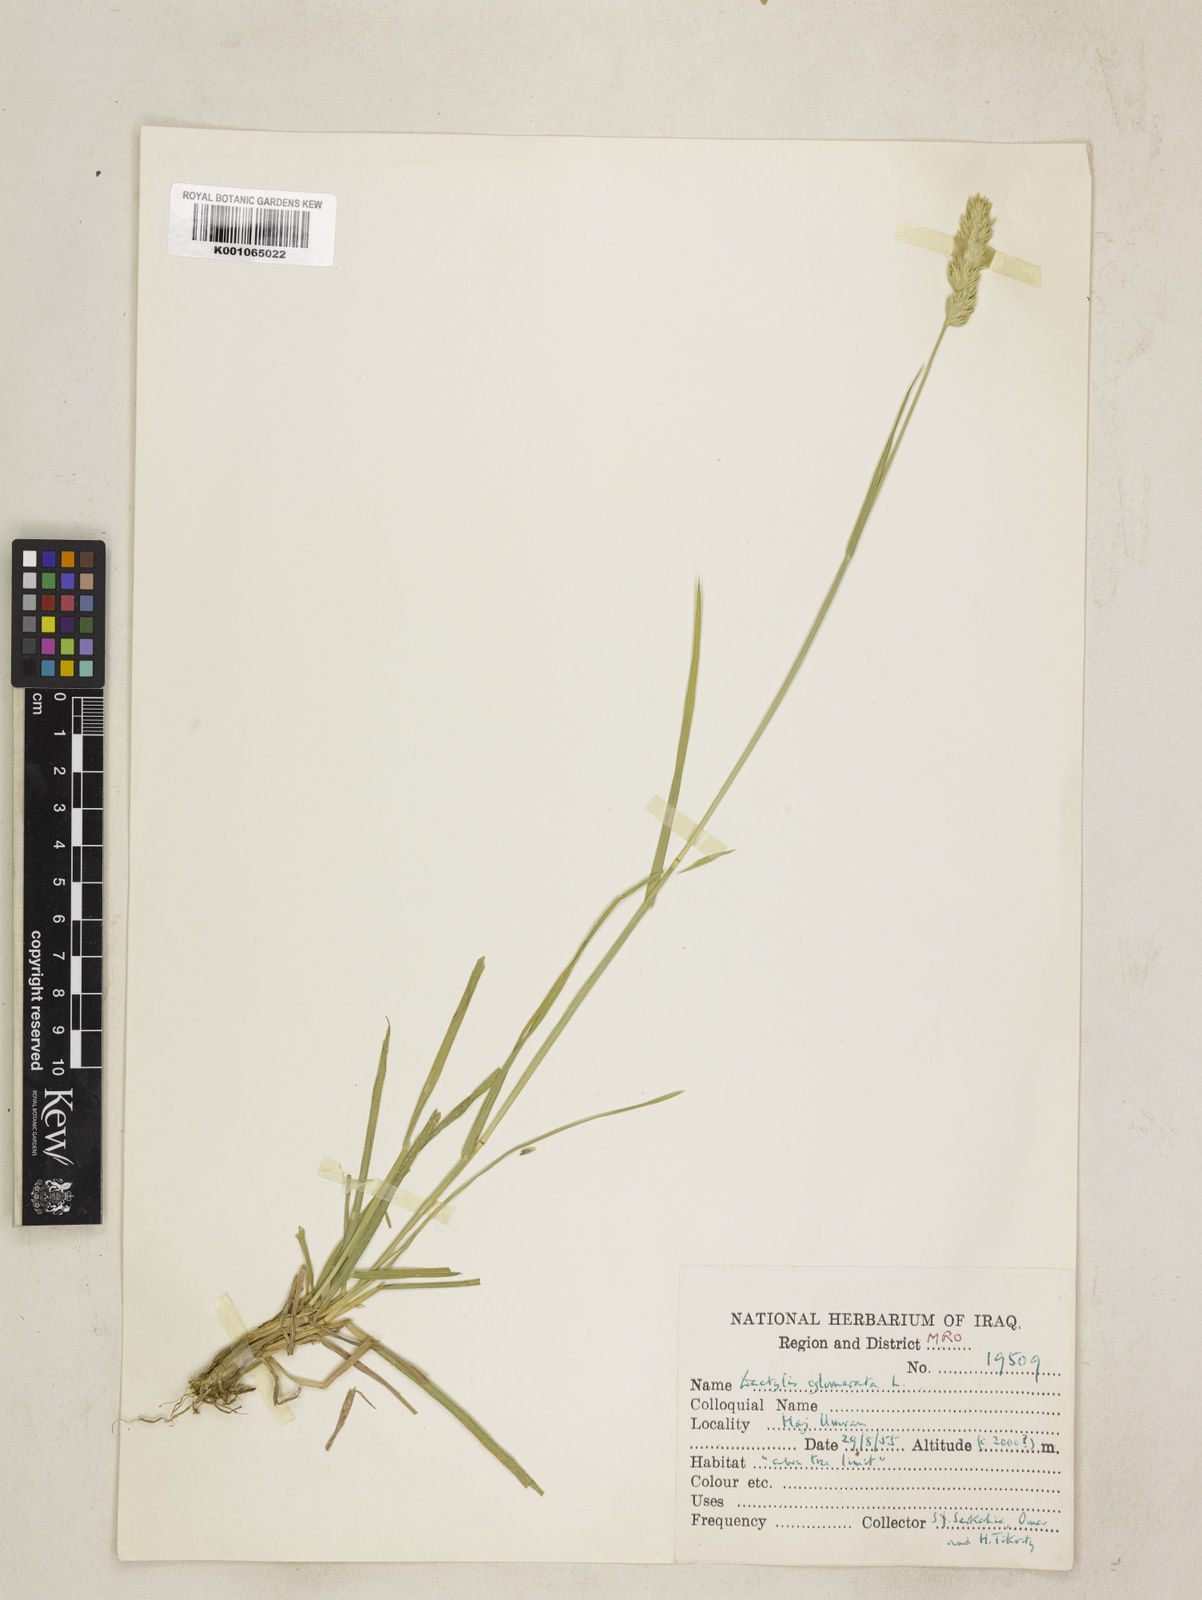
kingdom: Plantae
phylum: Tracheophyta
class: Liliopsida
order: Poales
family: Poaceae
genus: Dactylis
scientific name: Dactylis glomerata
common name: Orchardgrass
